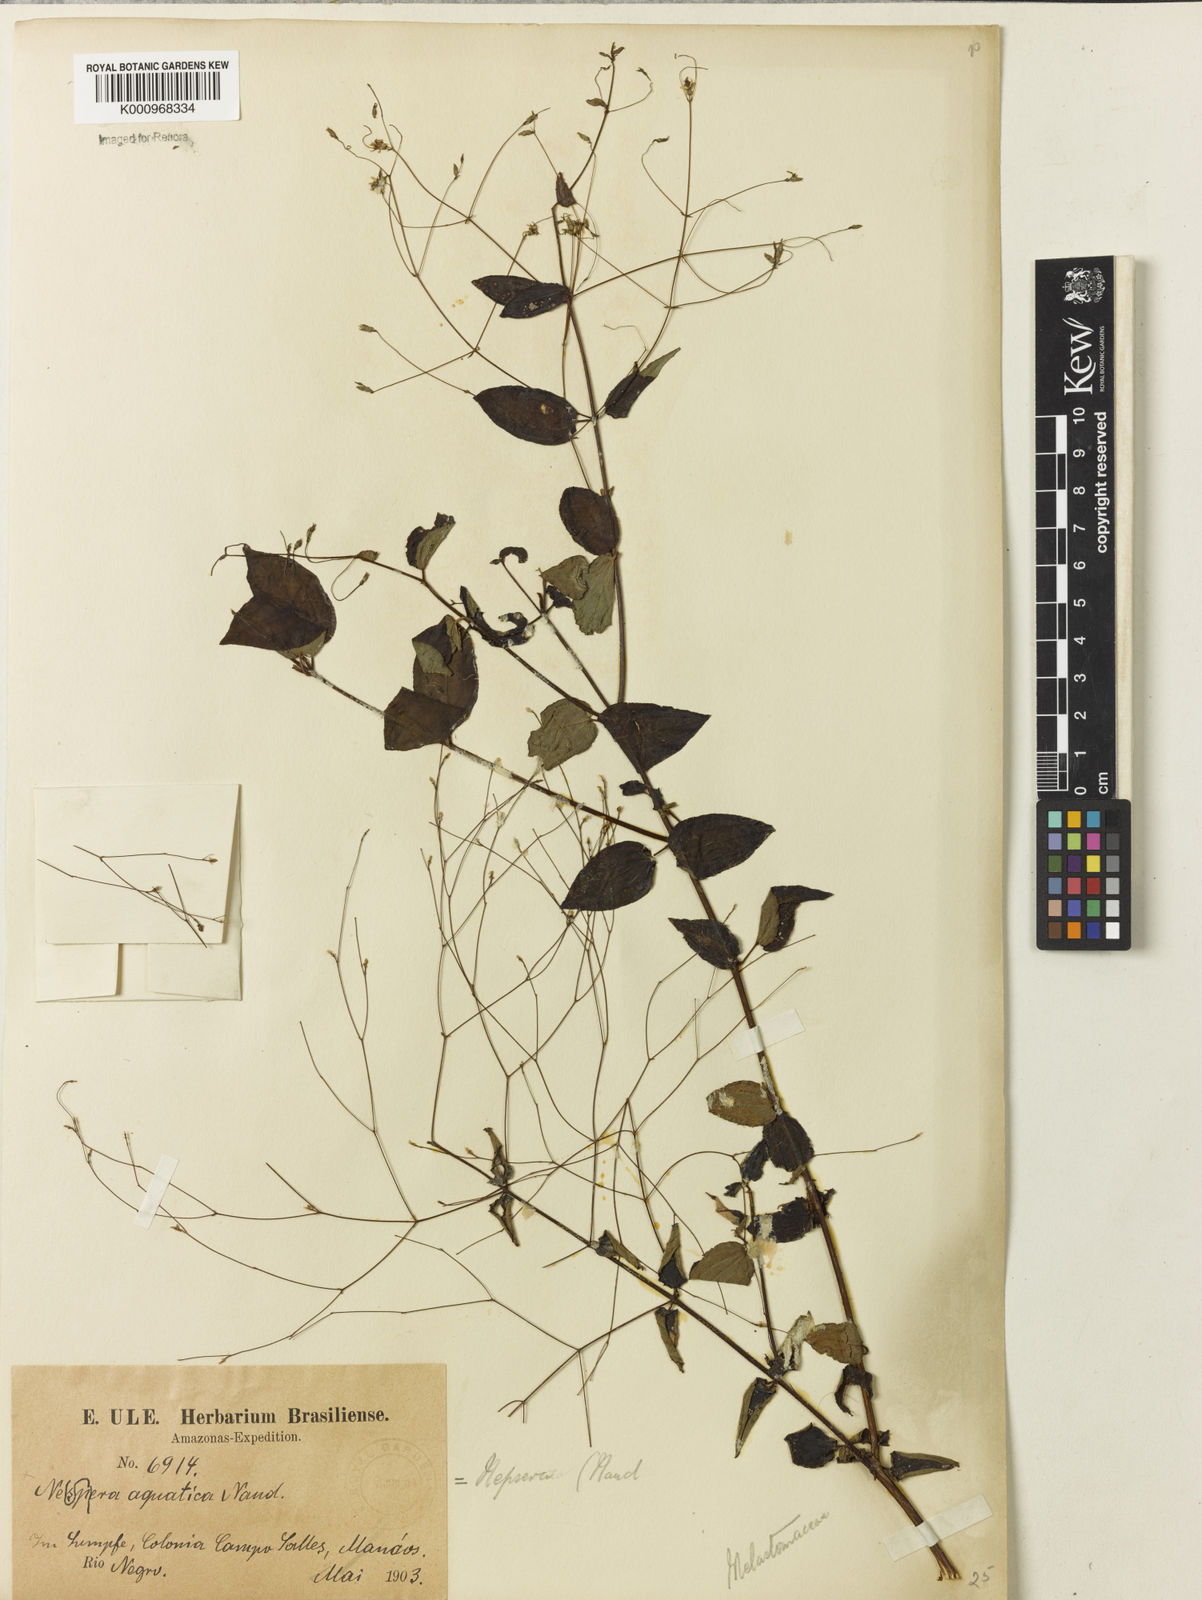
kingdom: Plantae
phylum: Tracheophyta
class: Magnoliopsida
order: Myrtales
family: Melastomataceae
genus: Nepsera
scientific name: Nepsera aquatica
